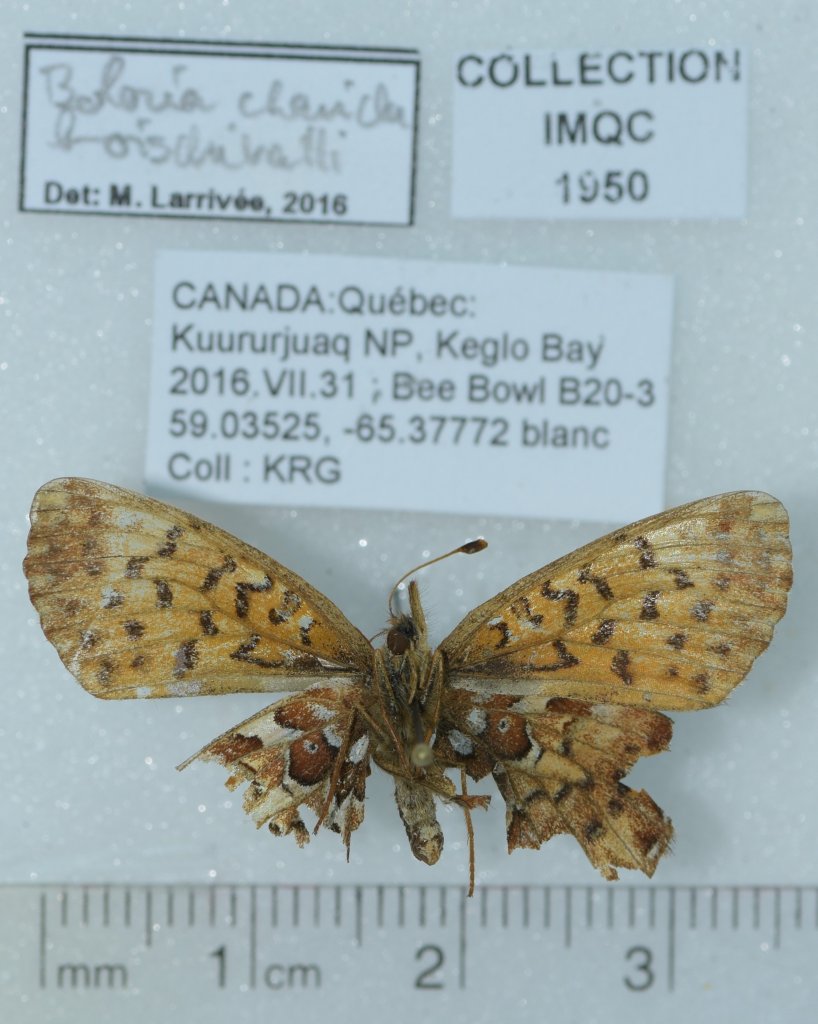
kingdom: Animalia
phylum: Arthropoda
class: Insecta
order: Lepidoptera
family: Nymphalidae
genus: Boloria
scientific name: Boloria chariclea
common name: Arctic Fritillary
